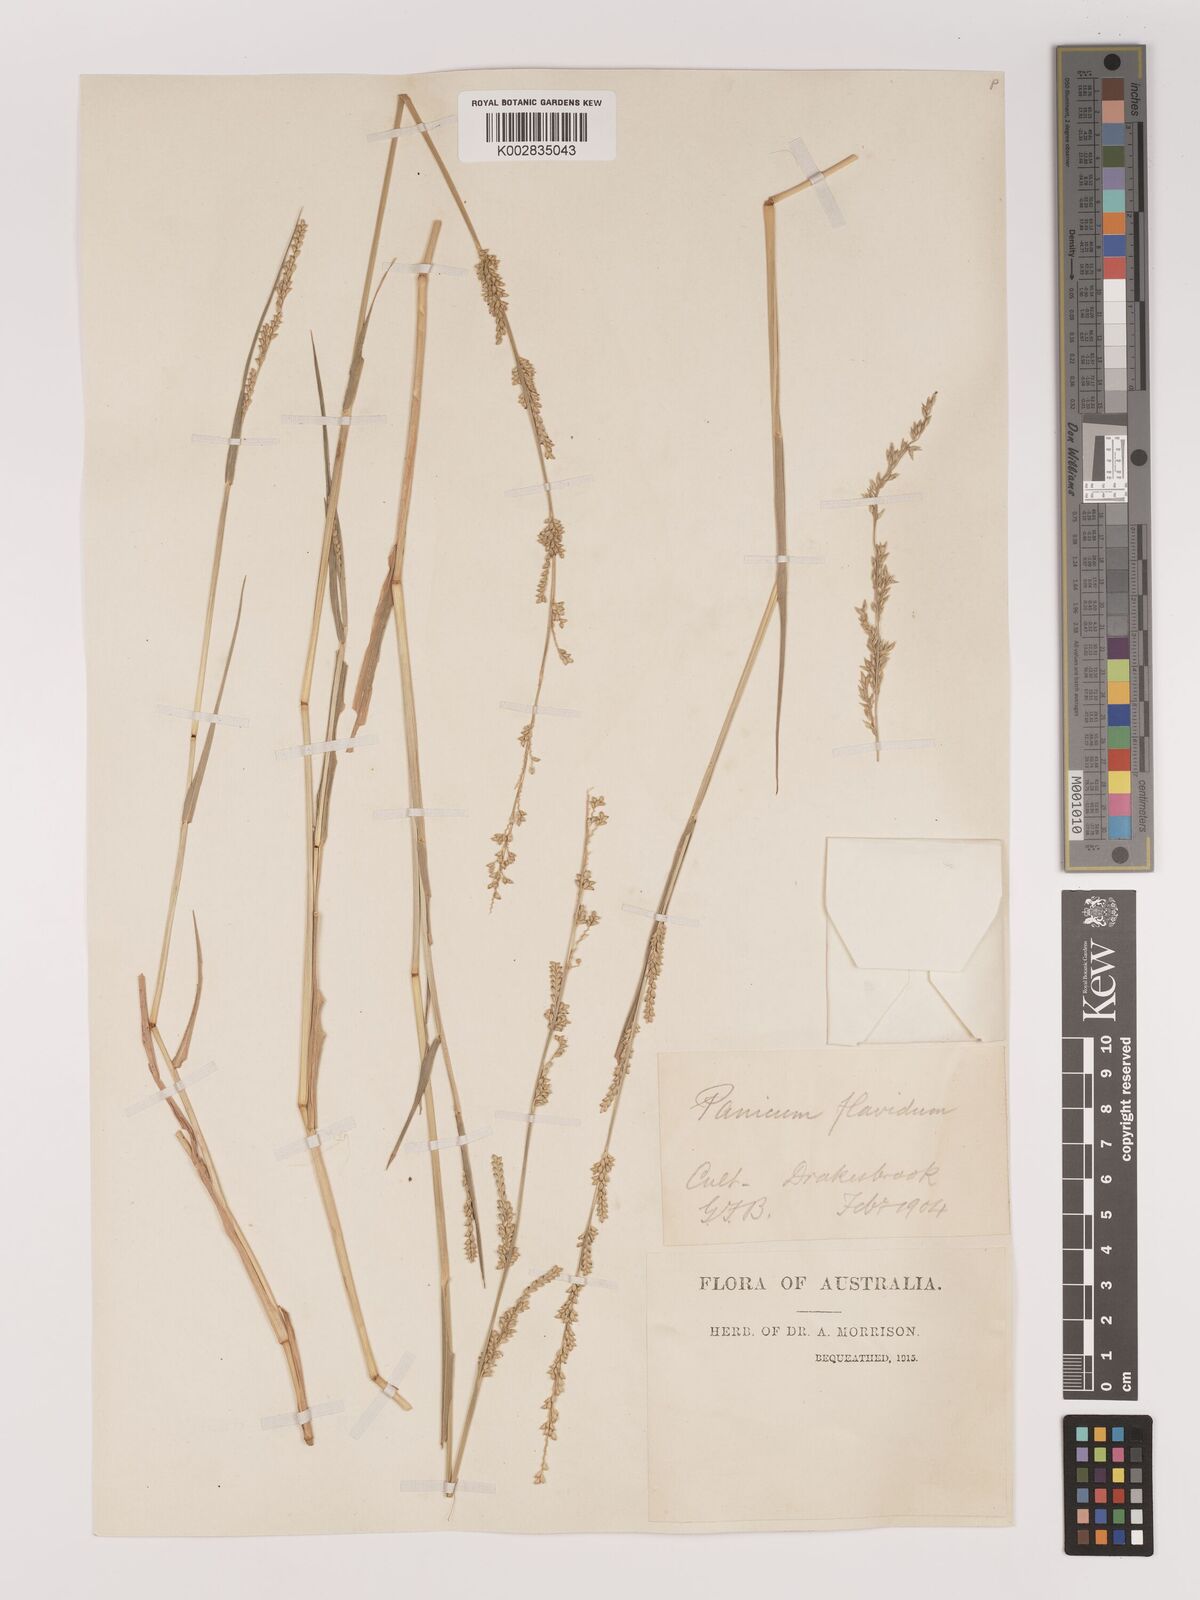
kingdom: Plantae
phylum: Tracheophyta
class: Liliopsida
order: Poales
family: Poaceae
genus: Setaria
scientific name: Setaria
